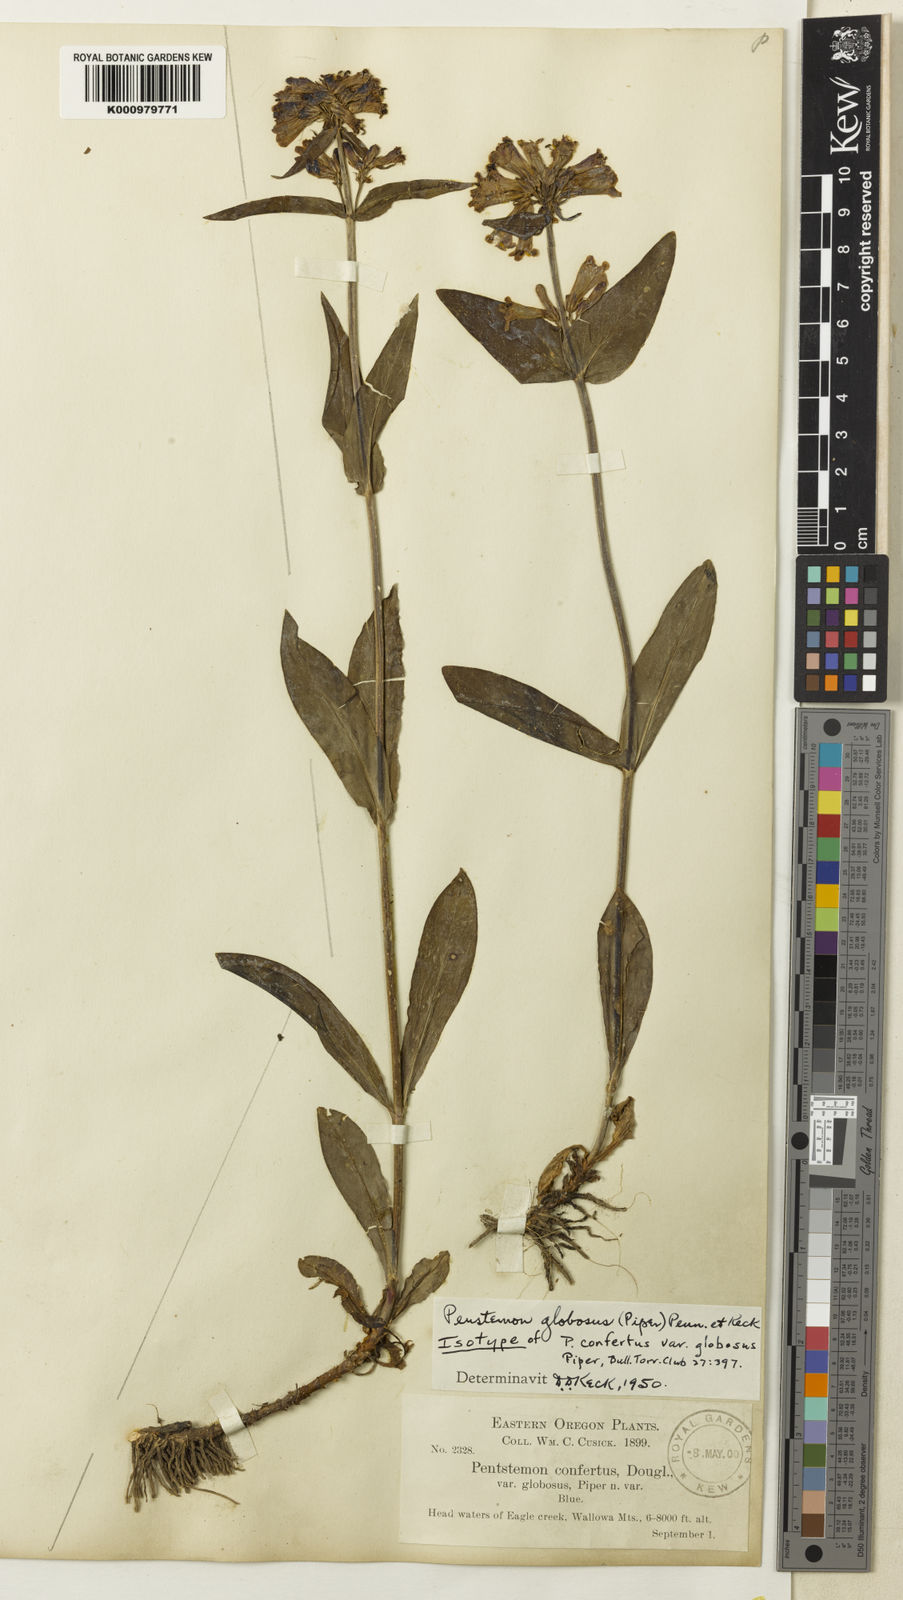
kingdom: Plantae
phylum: Tracheophyta
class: Magnoliopsida
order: Lamiales
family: Plantaginaceae
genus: Penstemon
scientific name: Penstemon
